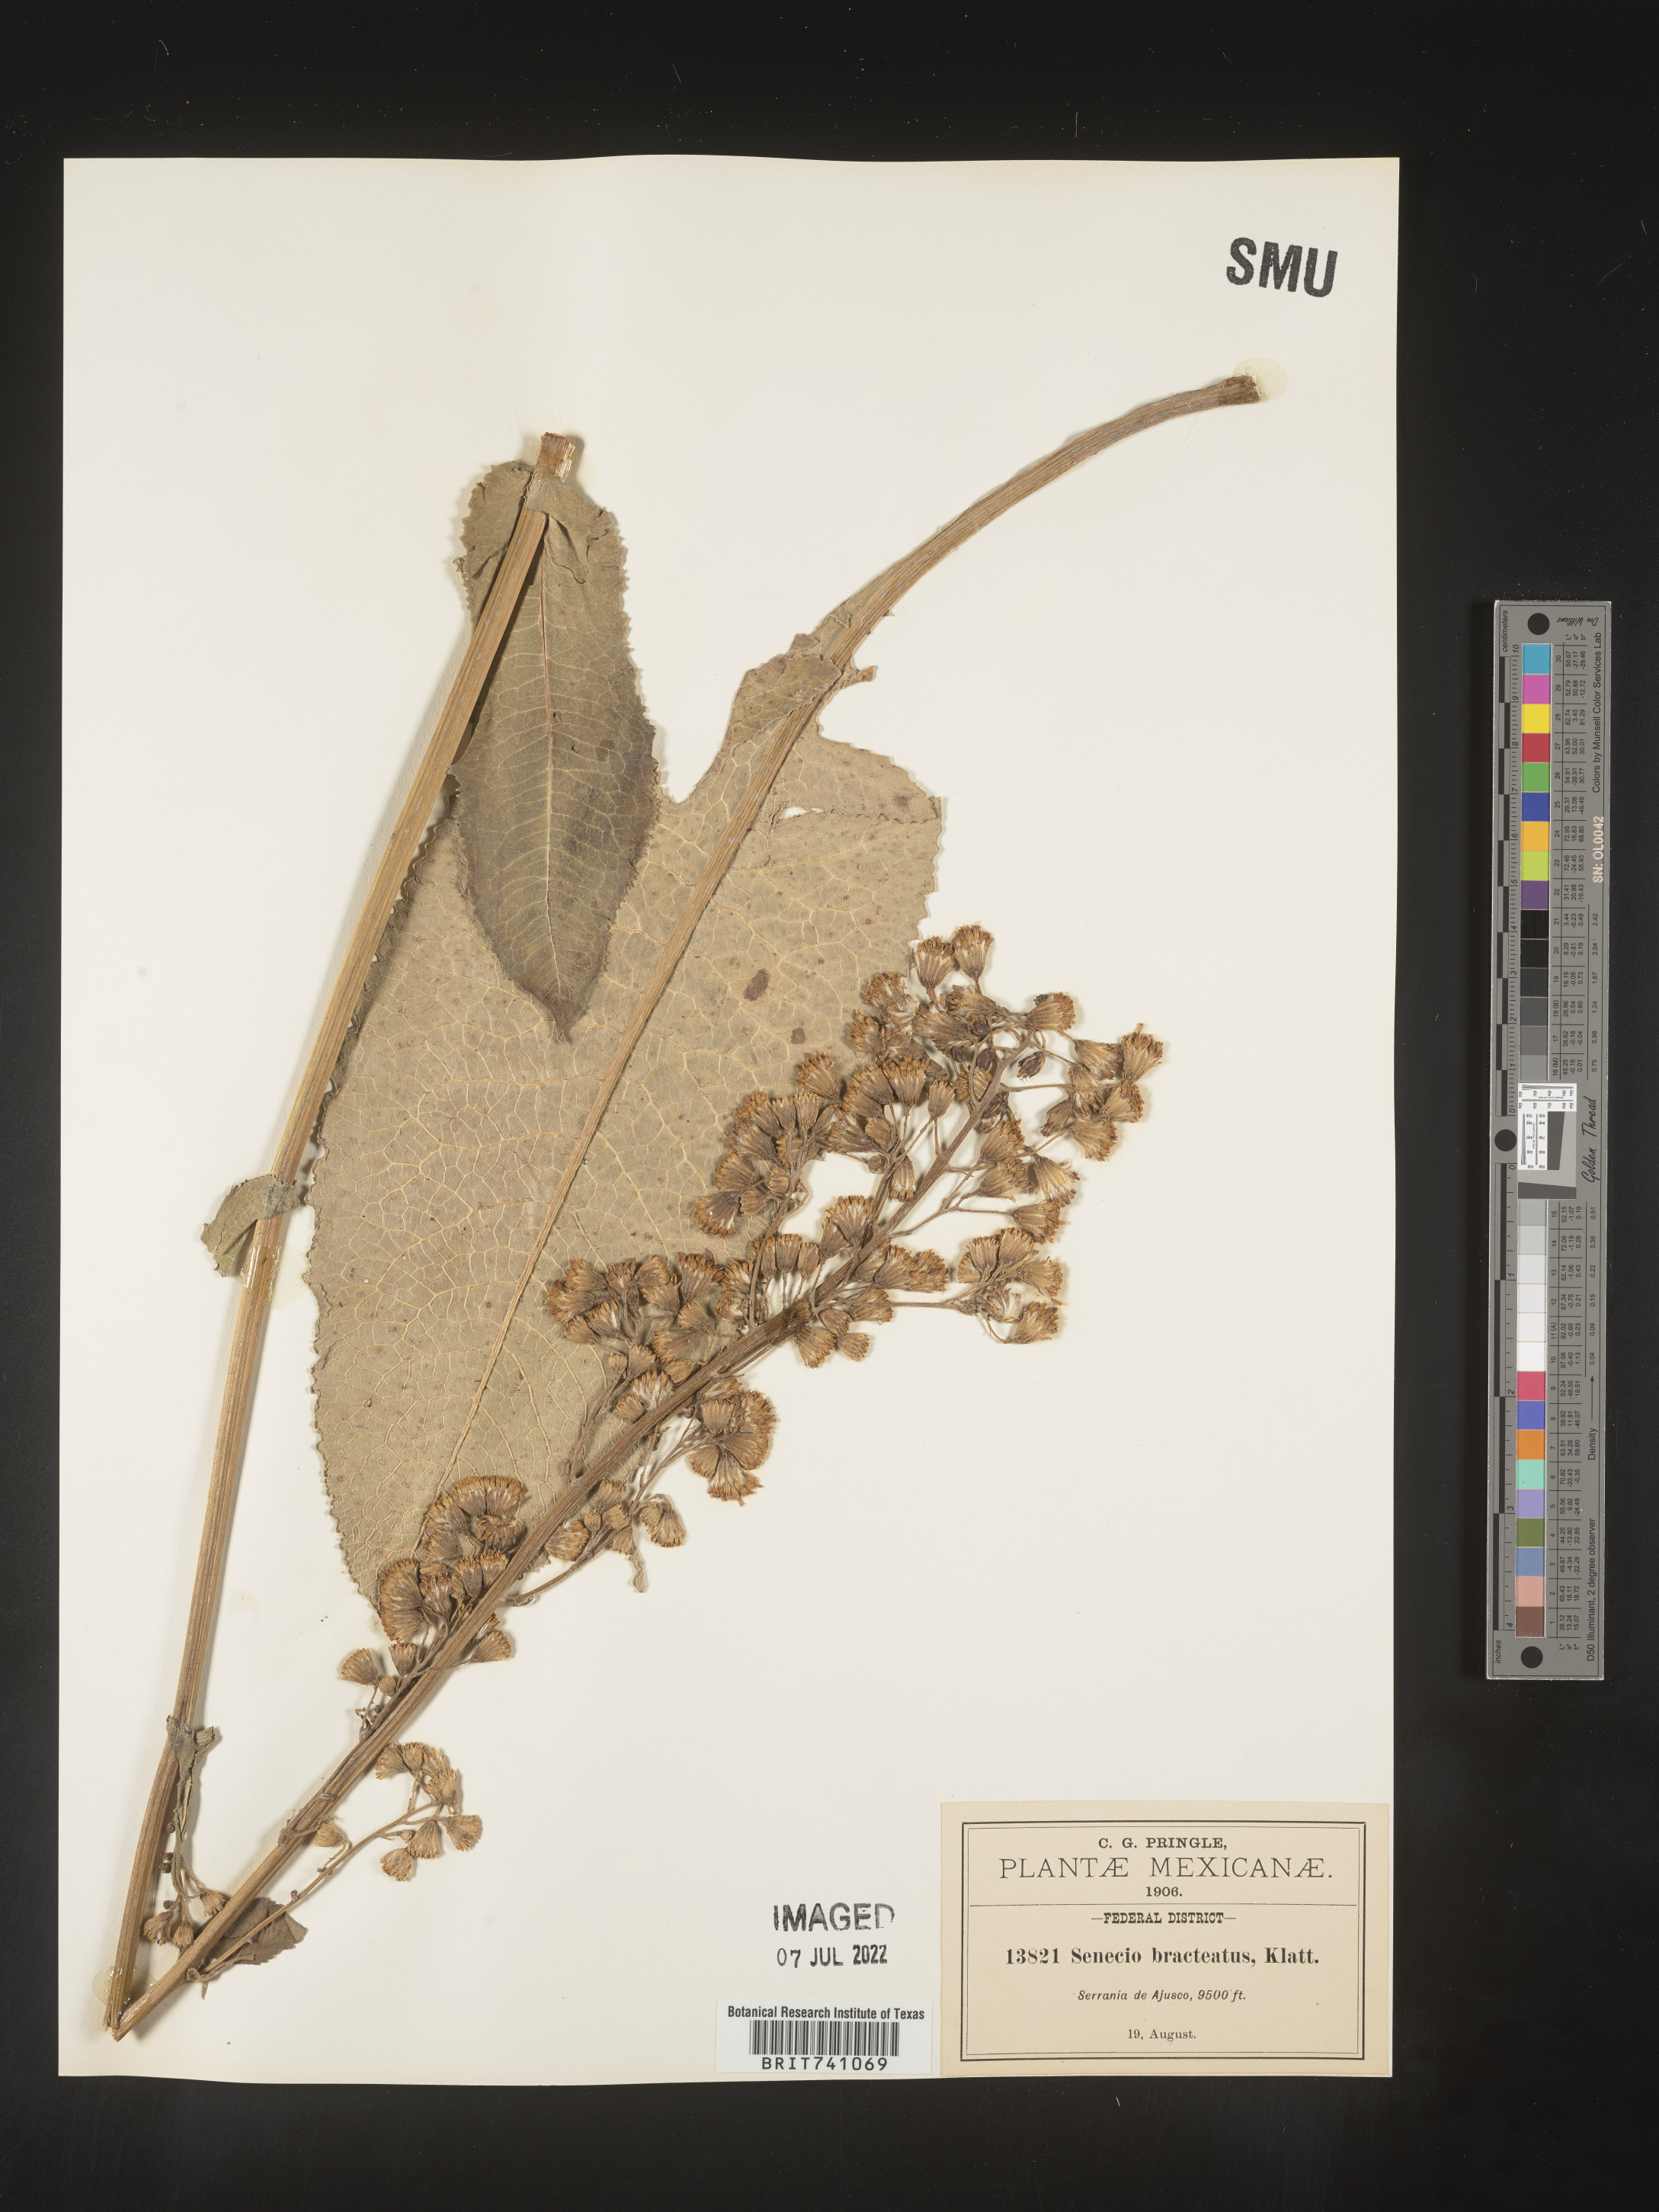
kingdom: Plantae
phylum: Tracheophyta
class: Magnoliopsida
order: Asterales
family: Asteraceae
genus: Senecio
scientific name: Senecio
